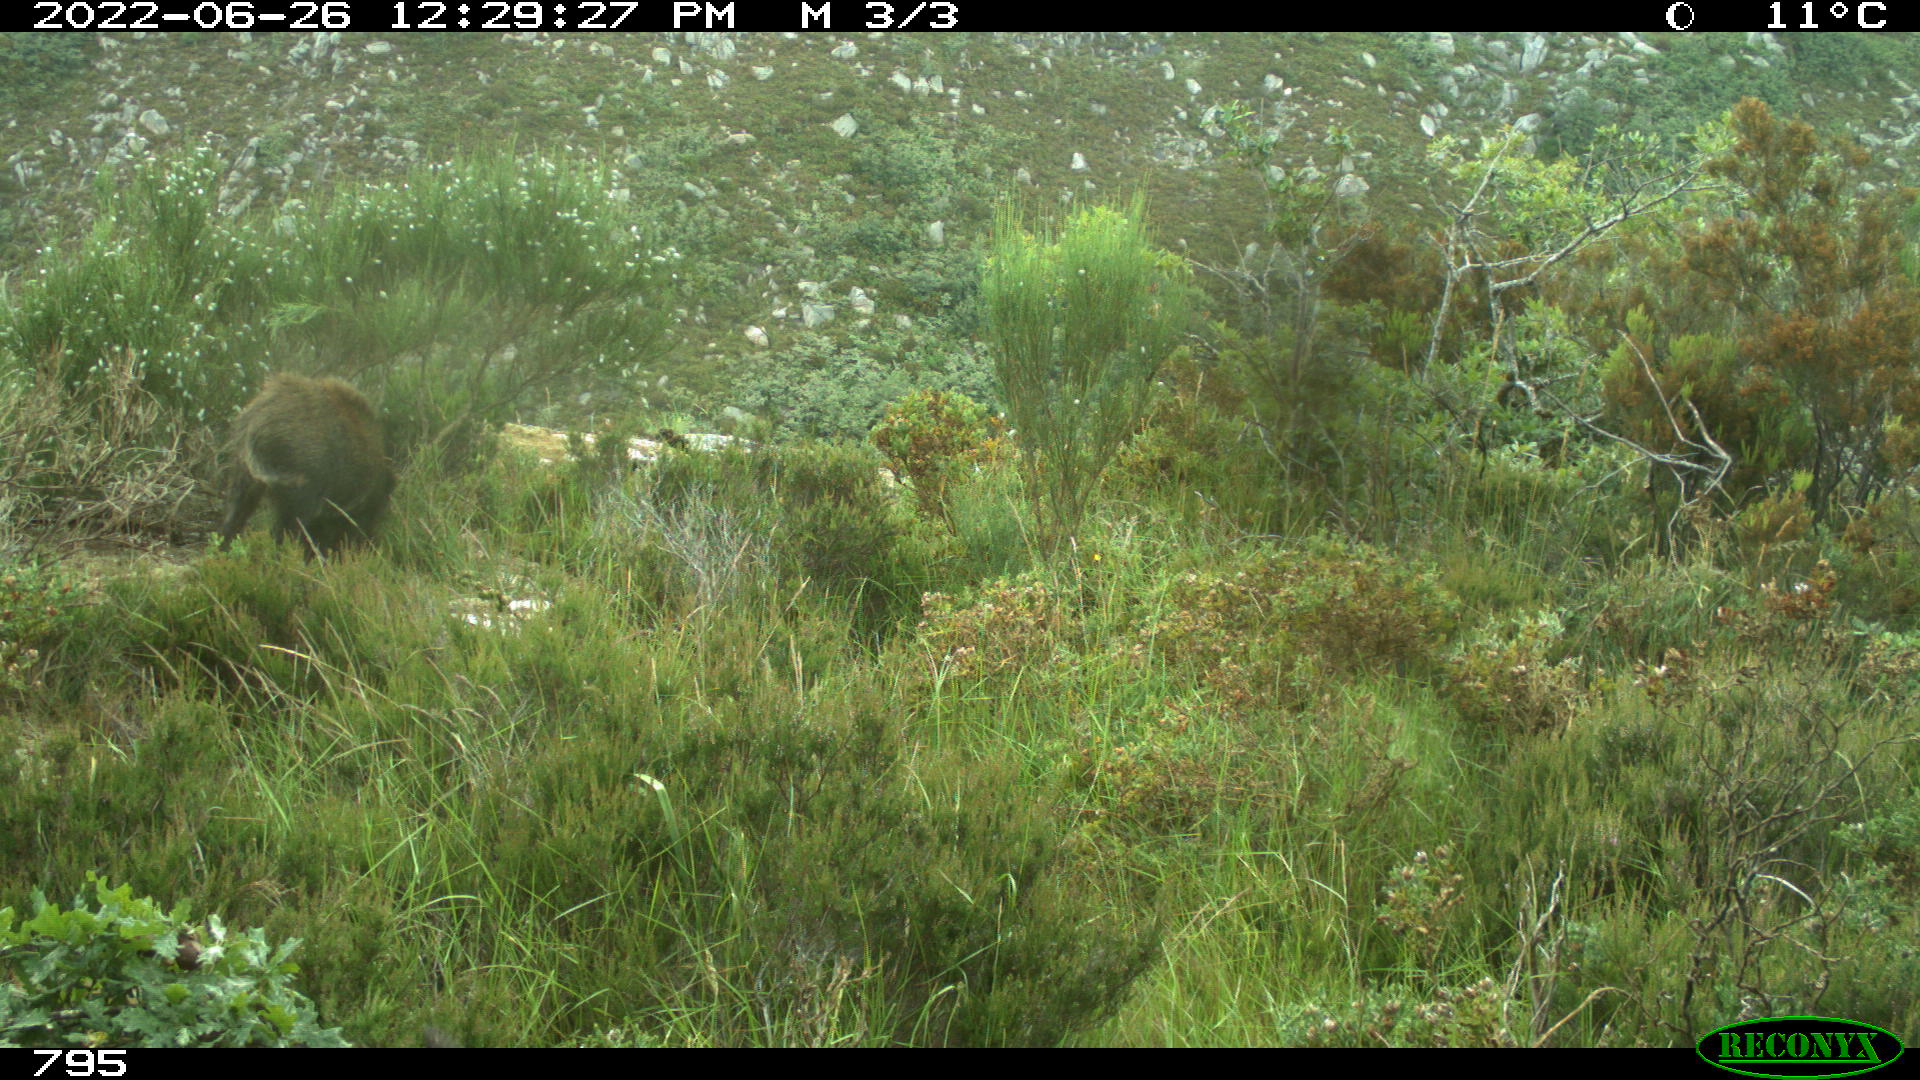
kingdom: Animalia
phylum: Chordata
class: Mammalia
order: Artiodactyla
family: Suidae
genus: Sus
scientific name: Sus scrofa
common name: Wild boar
